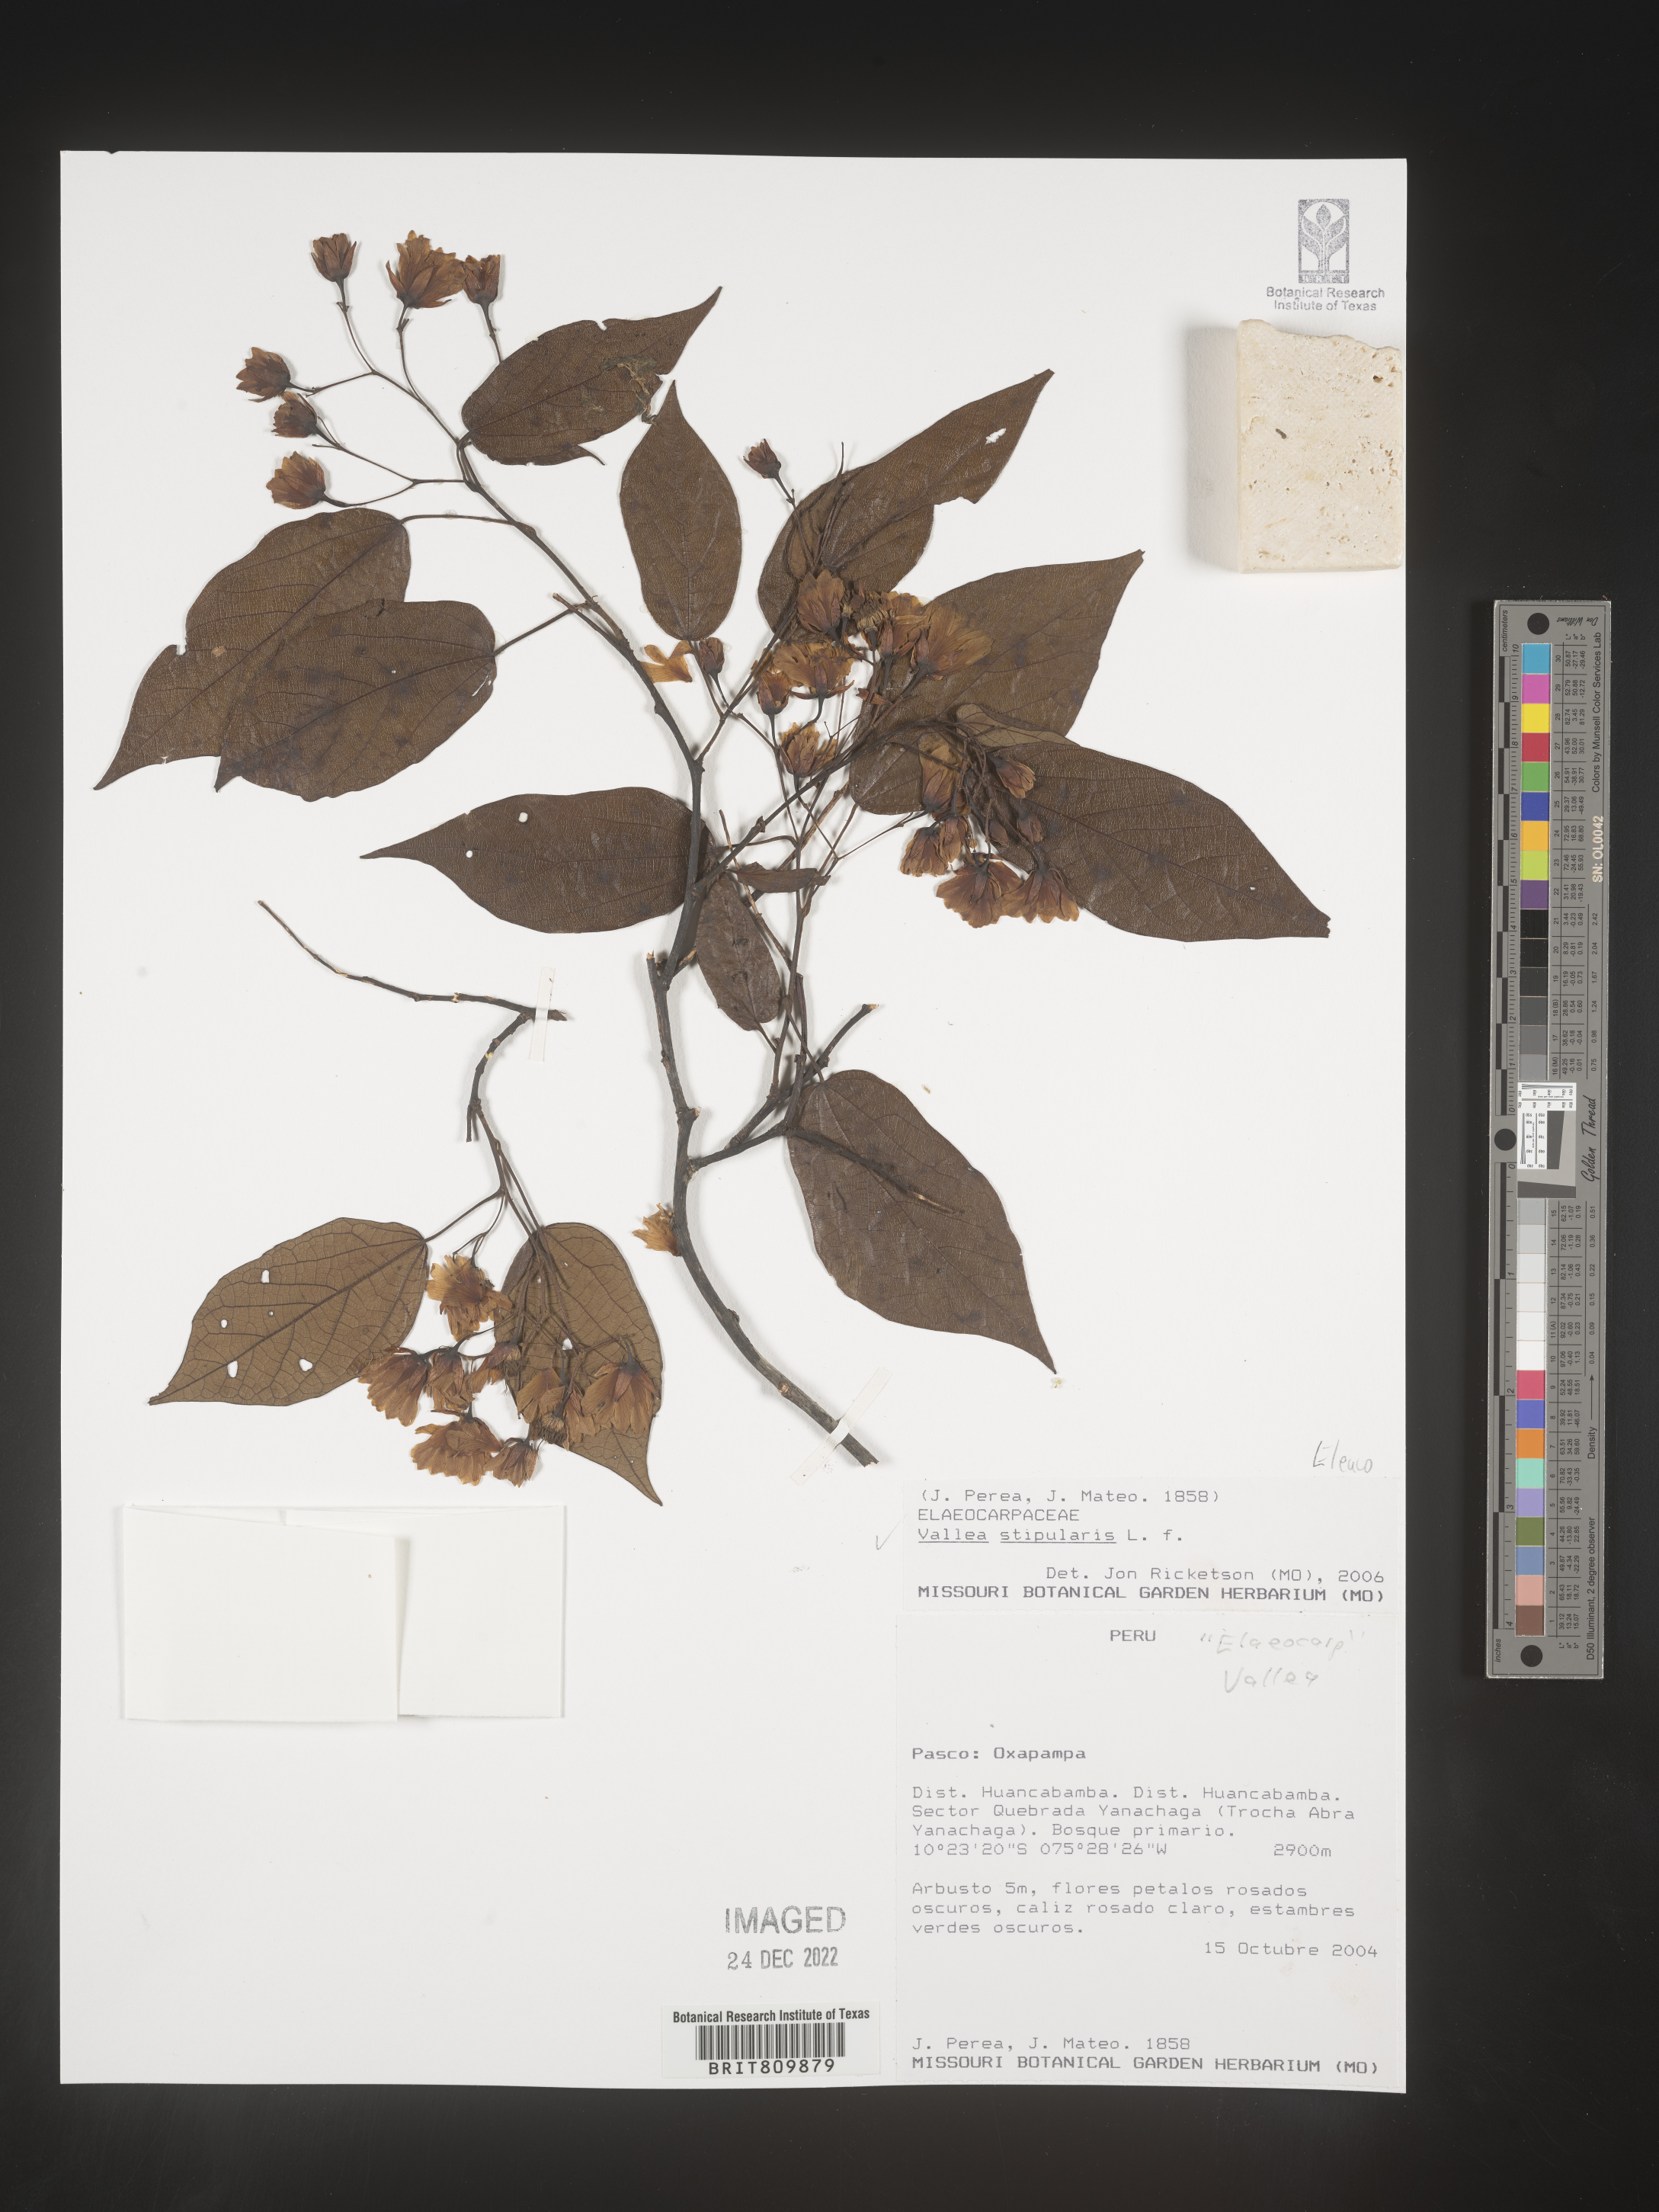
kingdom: Plantae
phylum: Tracheophyta
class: Magnoliopsida
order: Oxalidales
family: Elaeocarpaceae
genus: Vallea
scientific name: Vallea
